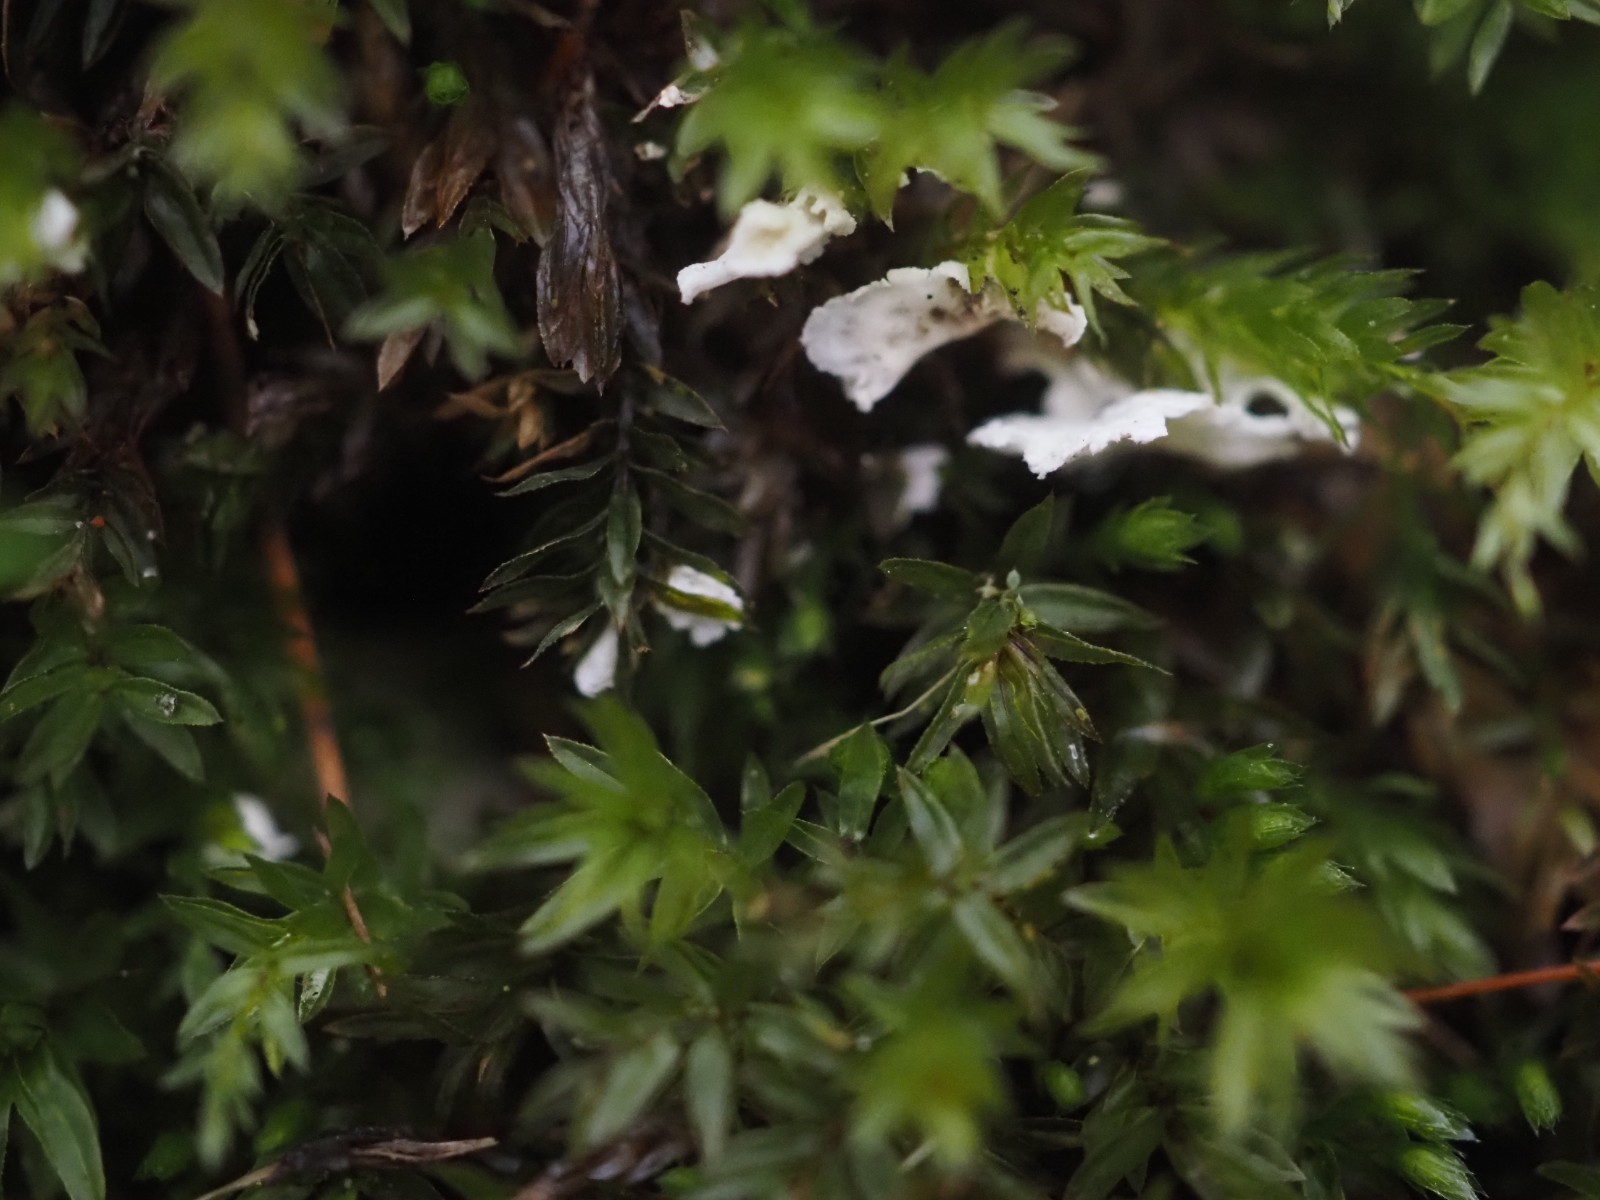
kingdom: Fungi
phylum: Basidiomycota
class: Agaricomycetes
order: Agaricales
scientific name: Agaricales
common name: champignonordenen
